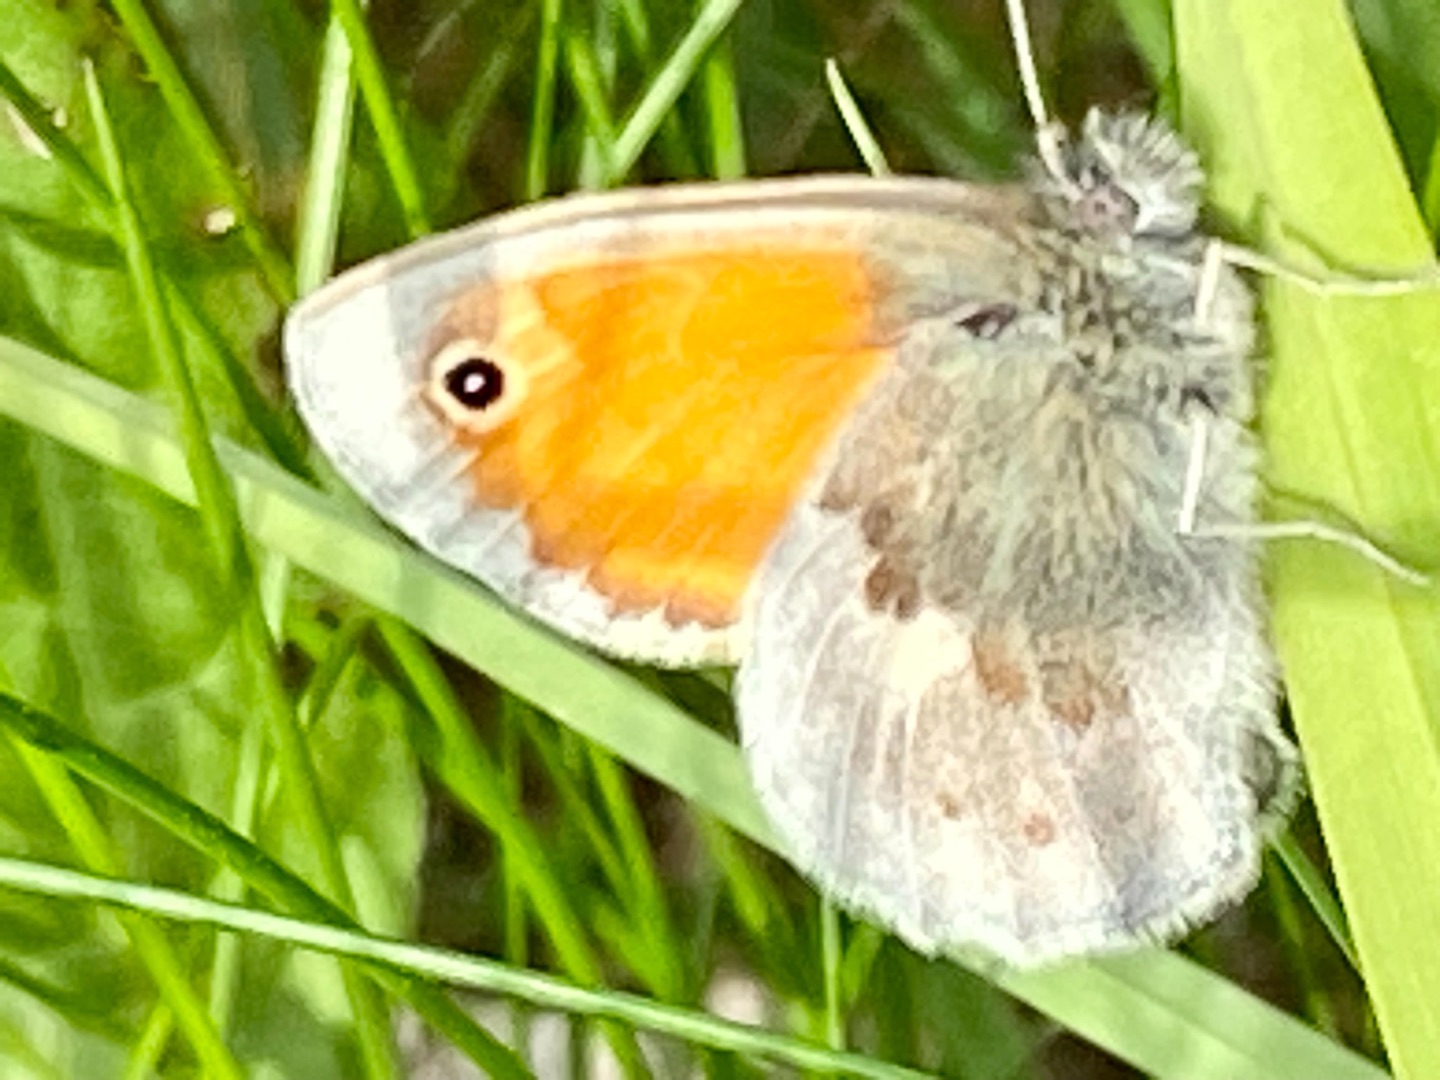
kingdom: Animalia
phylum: Arthropoda
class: Insecta
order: Lepidoptera
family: Nymphalidae
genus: Coenonympha
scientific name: Coenonympha pamphilus
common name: Okkergul randøje
